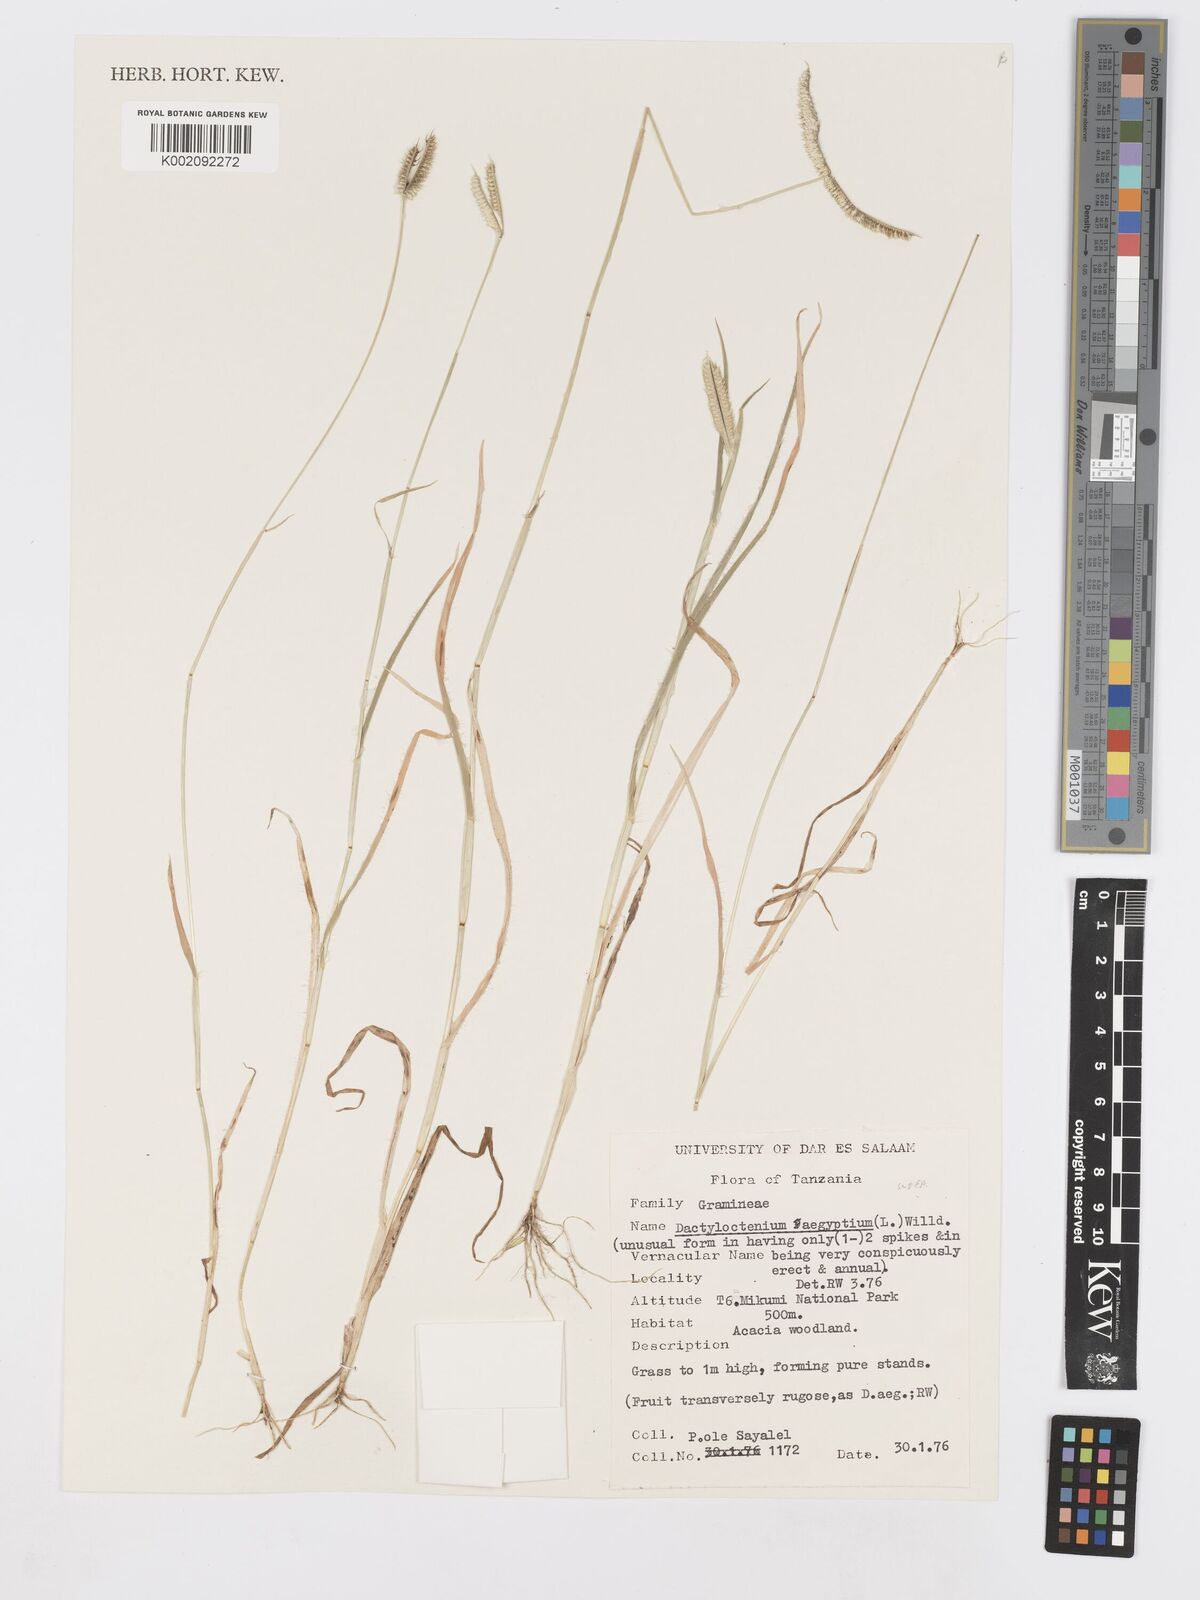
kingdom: Plantae
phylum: Tracheophyta
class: Liliopsida
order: Poales
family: Poaceae
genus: Dactyloctenium
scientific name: Dactyloctenium aegyptium
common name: Egyptian grass
